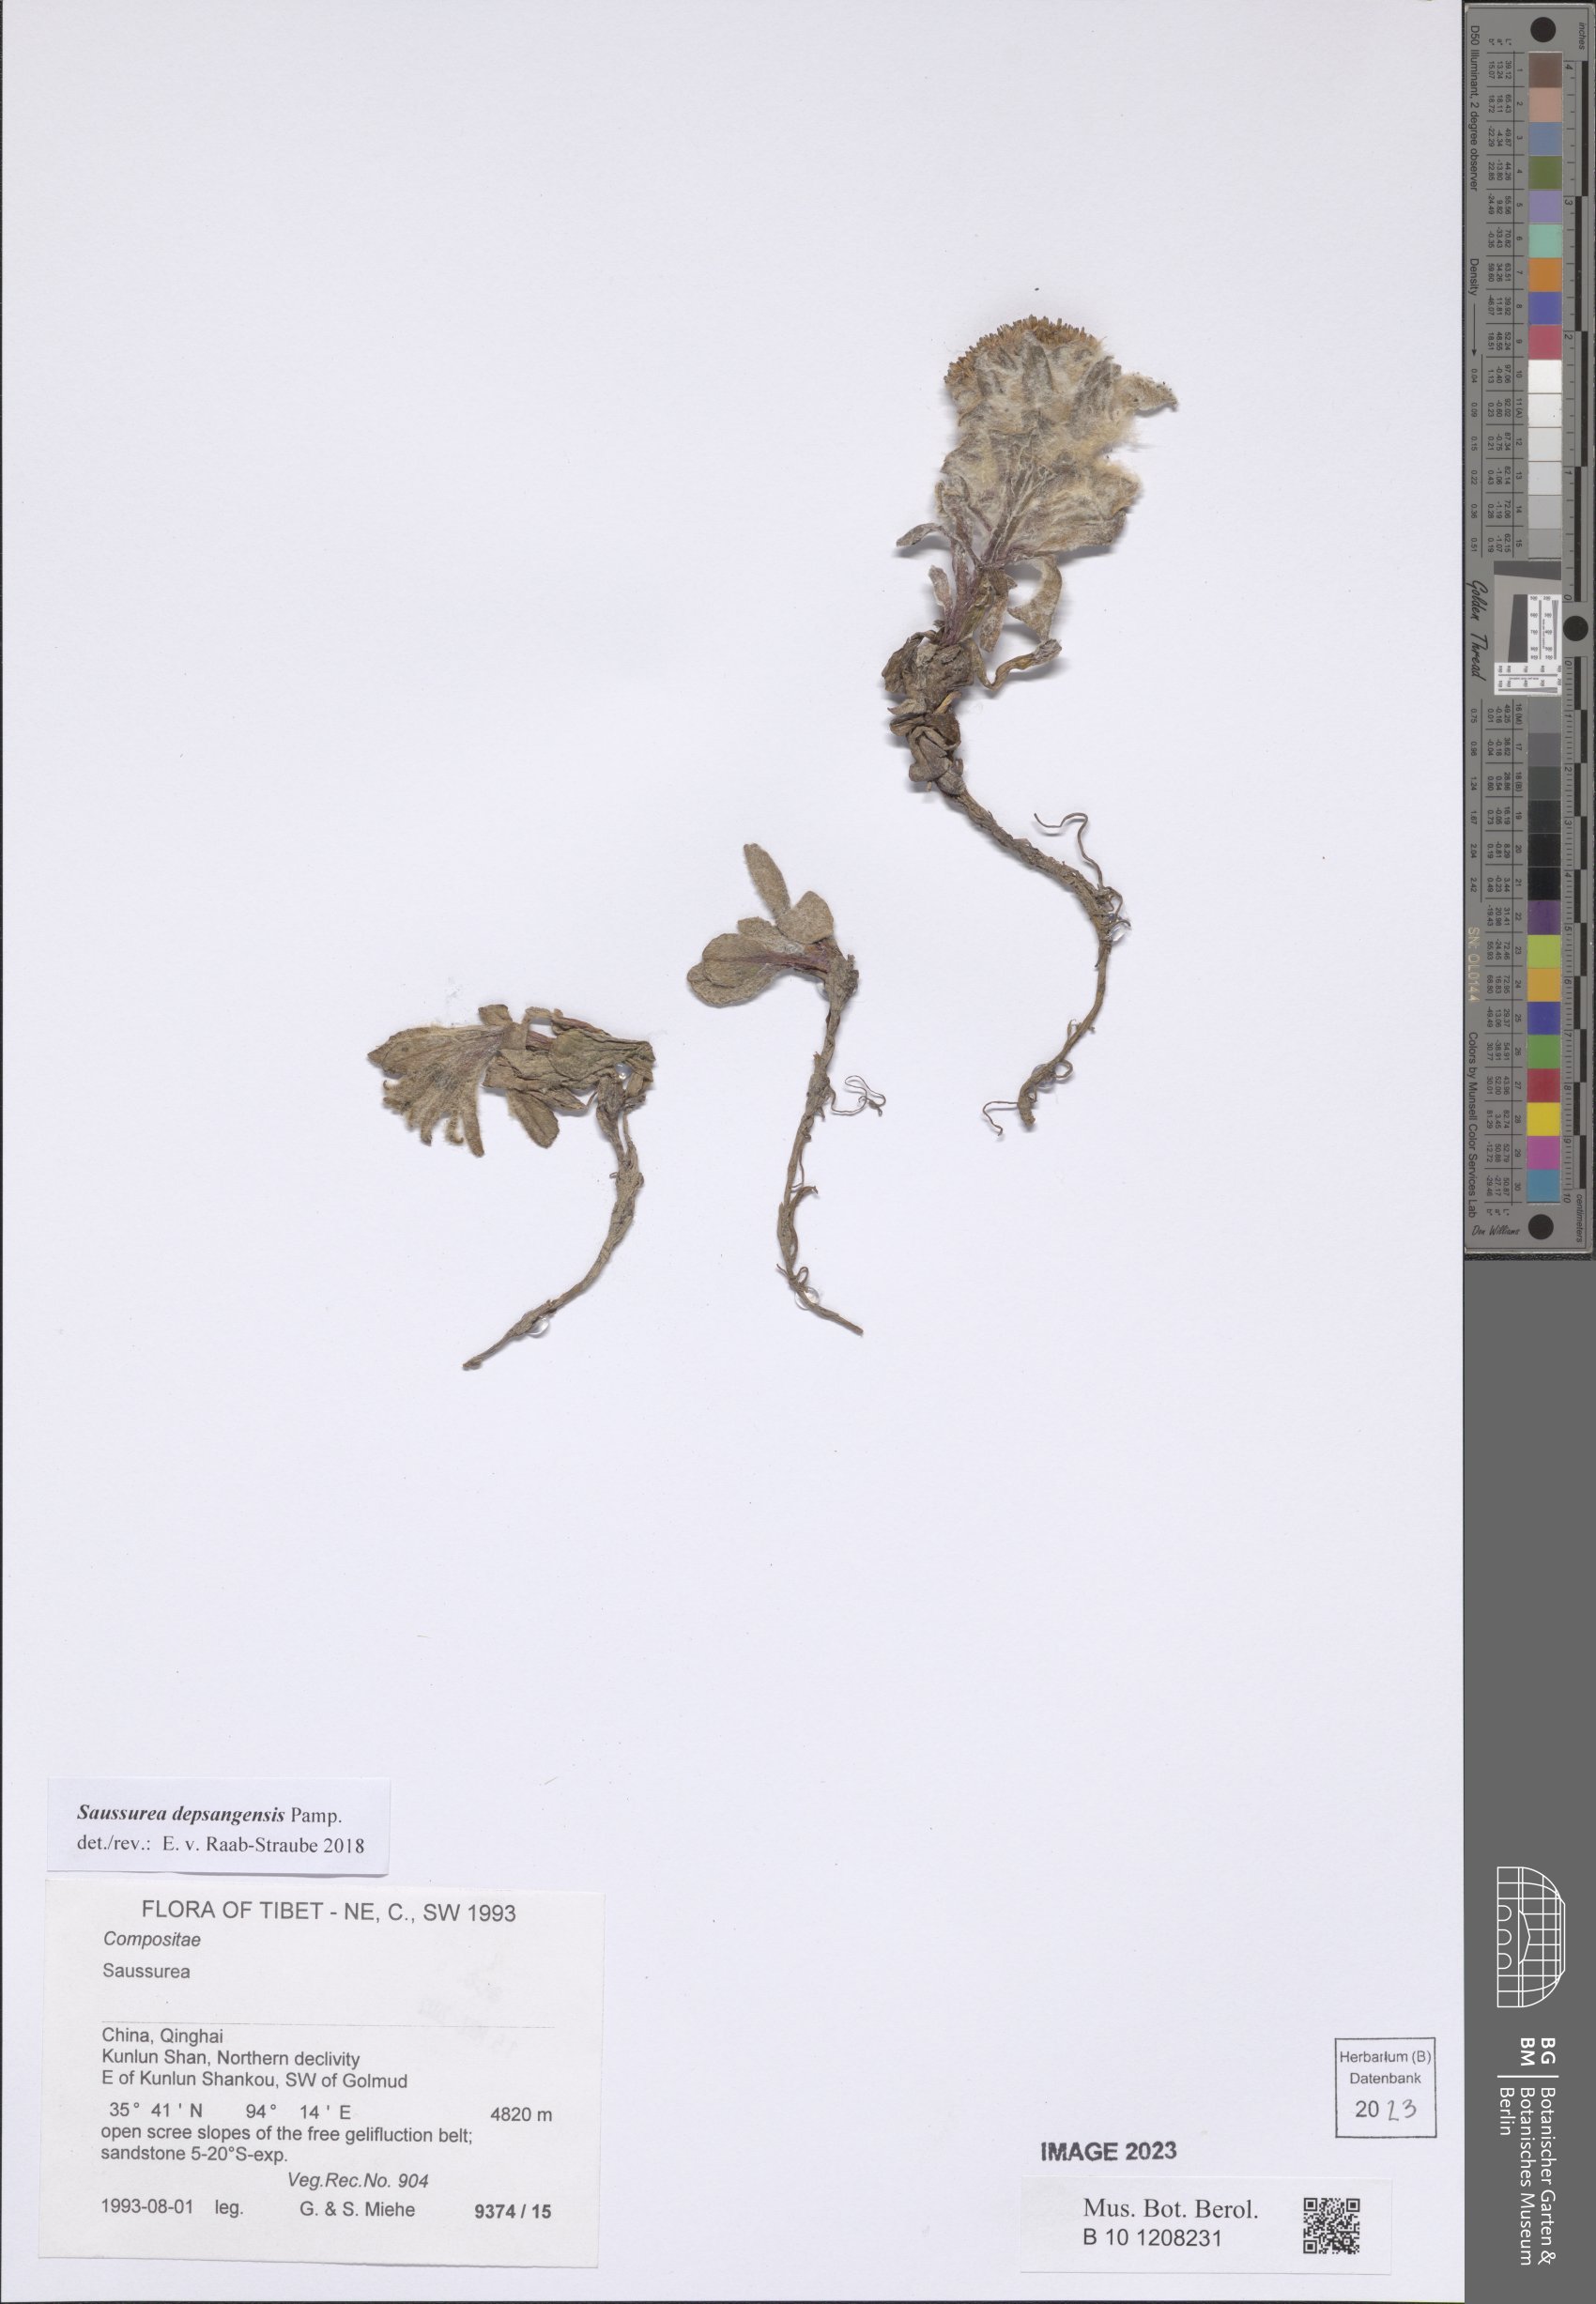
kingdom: Plantae
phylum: Tracheophyta
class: Magnoliopsida
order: Asterales
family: Asteraceae
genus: Saussurea
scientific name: Saussurea depsangensis
